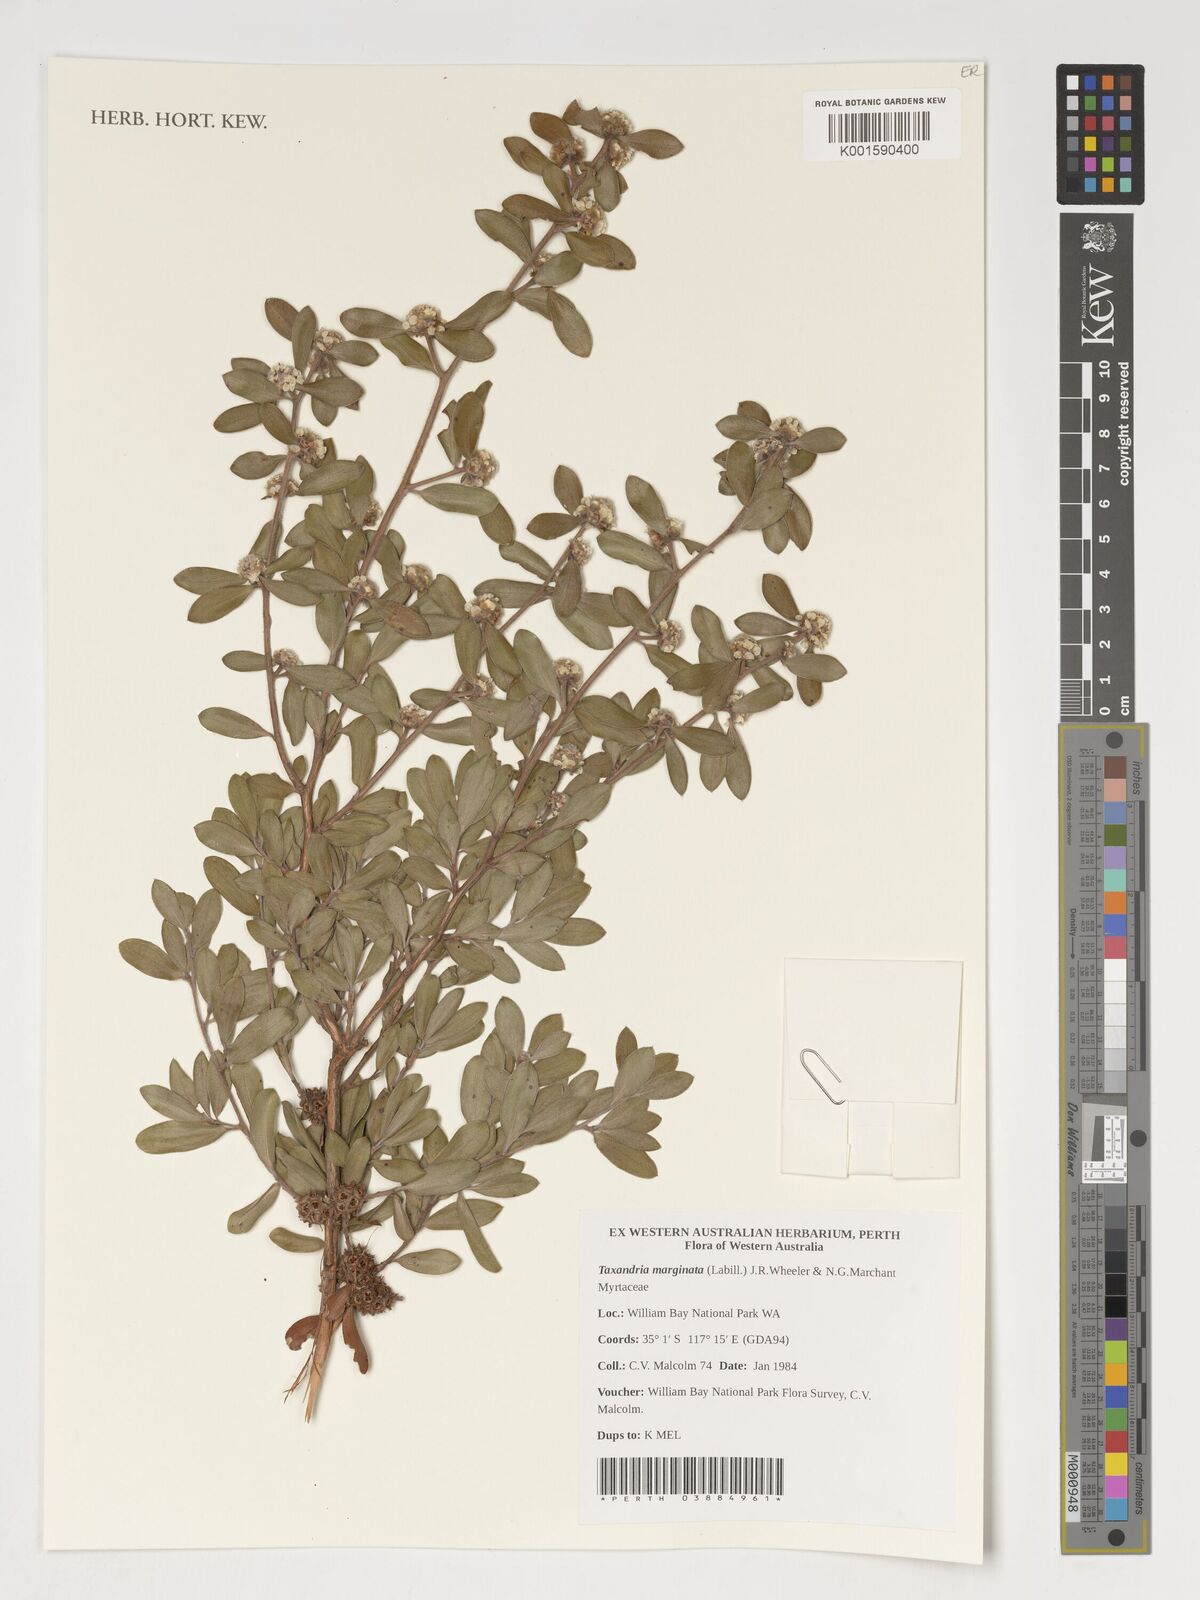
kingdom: Plantae
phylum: Tracheophyta
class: Magnoliopsida
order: Myrtales
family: Myrtaceae
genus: Taxandria
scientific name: Taxandria marginata
